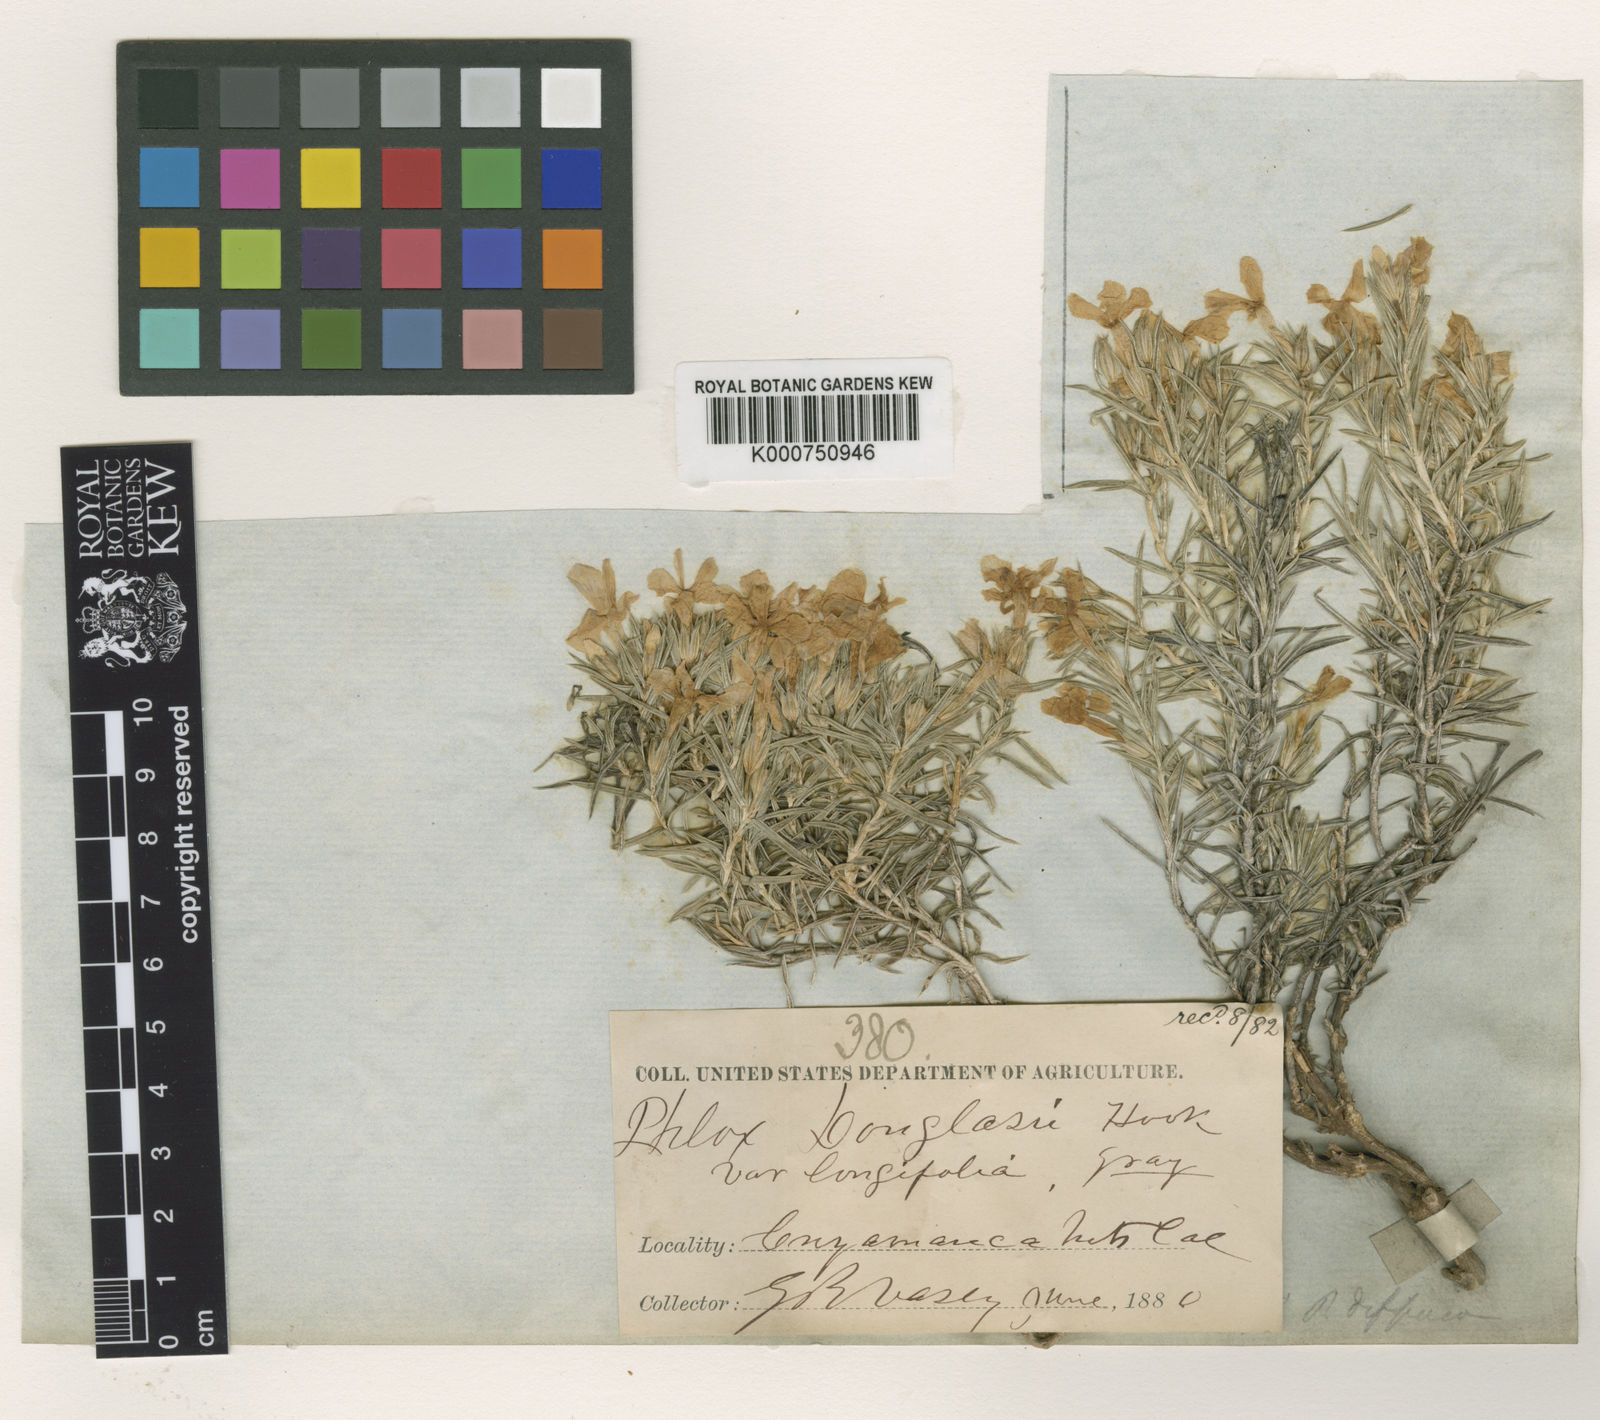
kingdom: Plantae
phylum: Tracheophyta
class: Magnoliopsida
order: Ericales
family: Polemoniaceae
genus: Phlox
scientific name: Phlox douglasii
